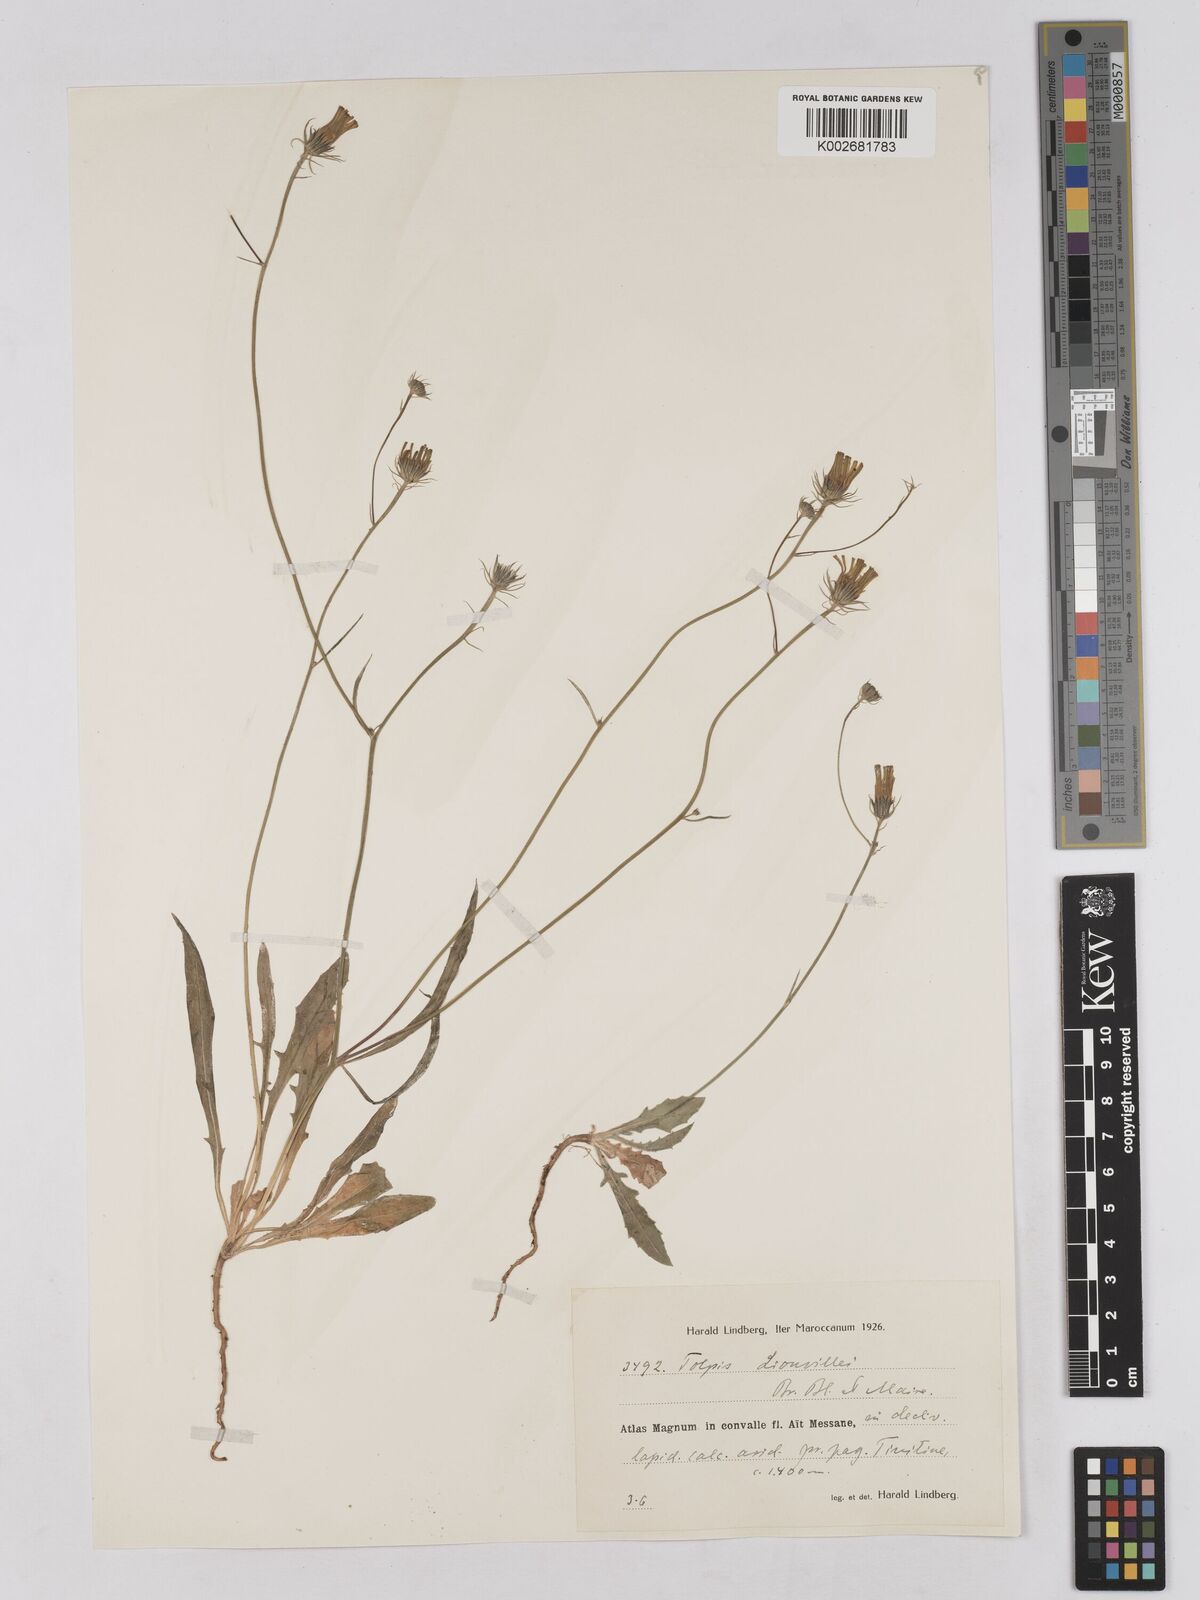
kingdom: Plantae
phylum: Tracheophyta
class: Magnoliopsida
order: Asterales
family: Asteraceae
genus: Tolpis
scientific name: Tolpis liouvillei
